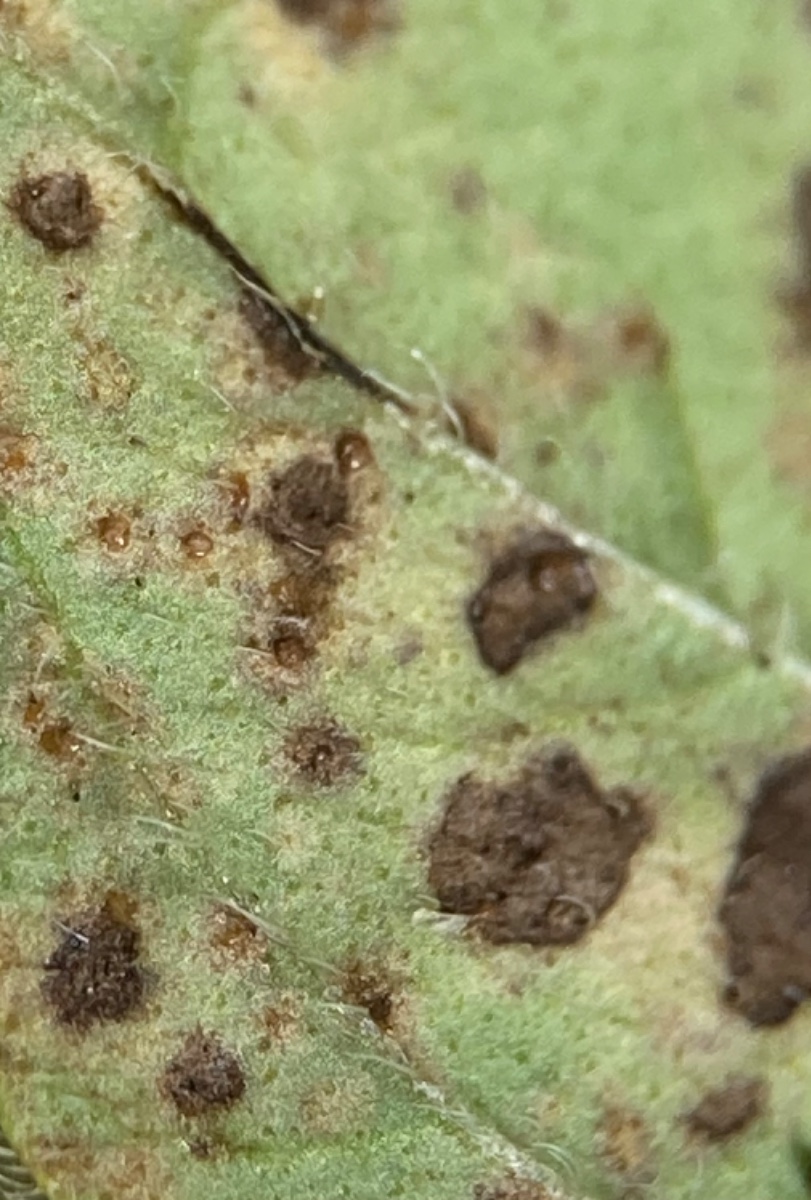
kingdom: Fungi
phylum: Basidiomycota
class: Pucciniomycetes
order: Pucciniales
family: Pucciniaceae
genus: Puccinia
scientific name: Puccinia menthae
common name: Mint rust
